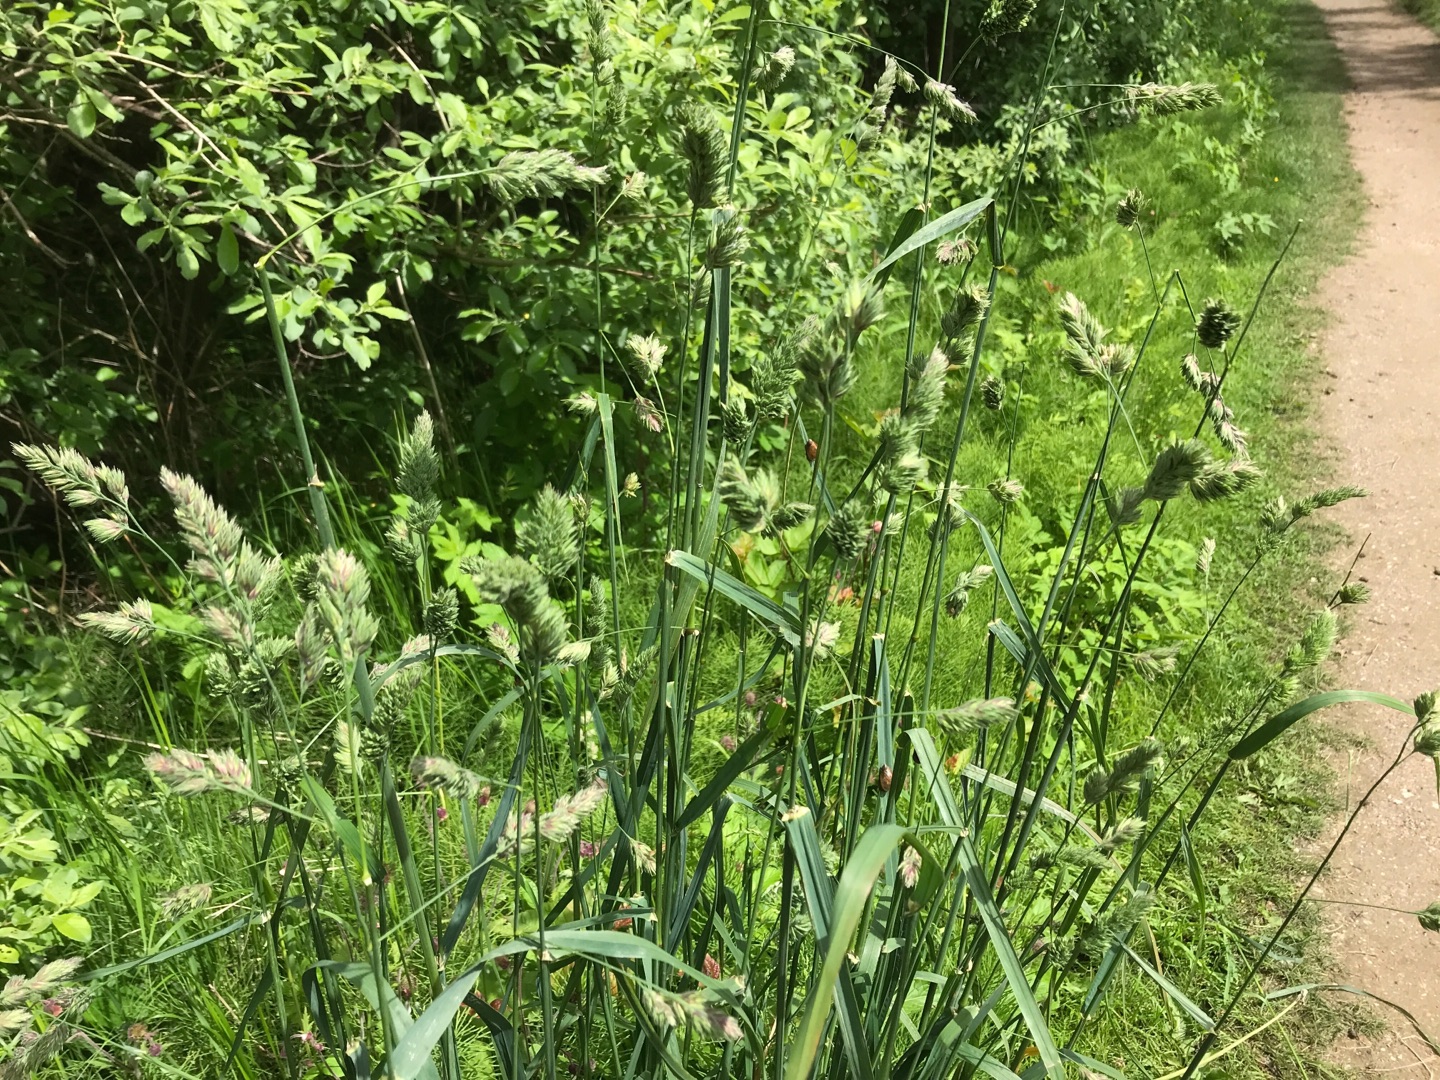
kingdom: Plantae
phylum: Tracheophyta
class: Liliopsida
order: Poales
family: Poaceae
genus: Dactylis
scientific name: Dactylis glomerata
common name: Almindelig hundegræs
